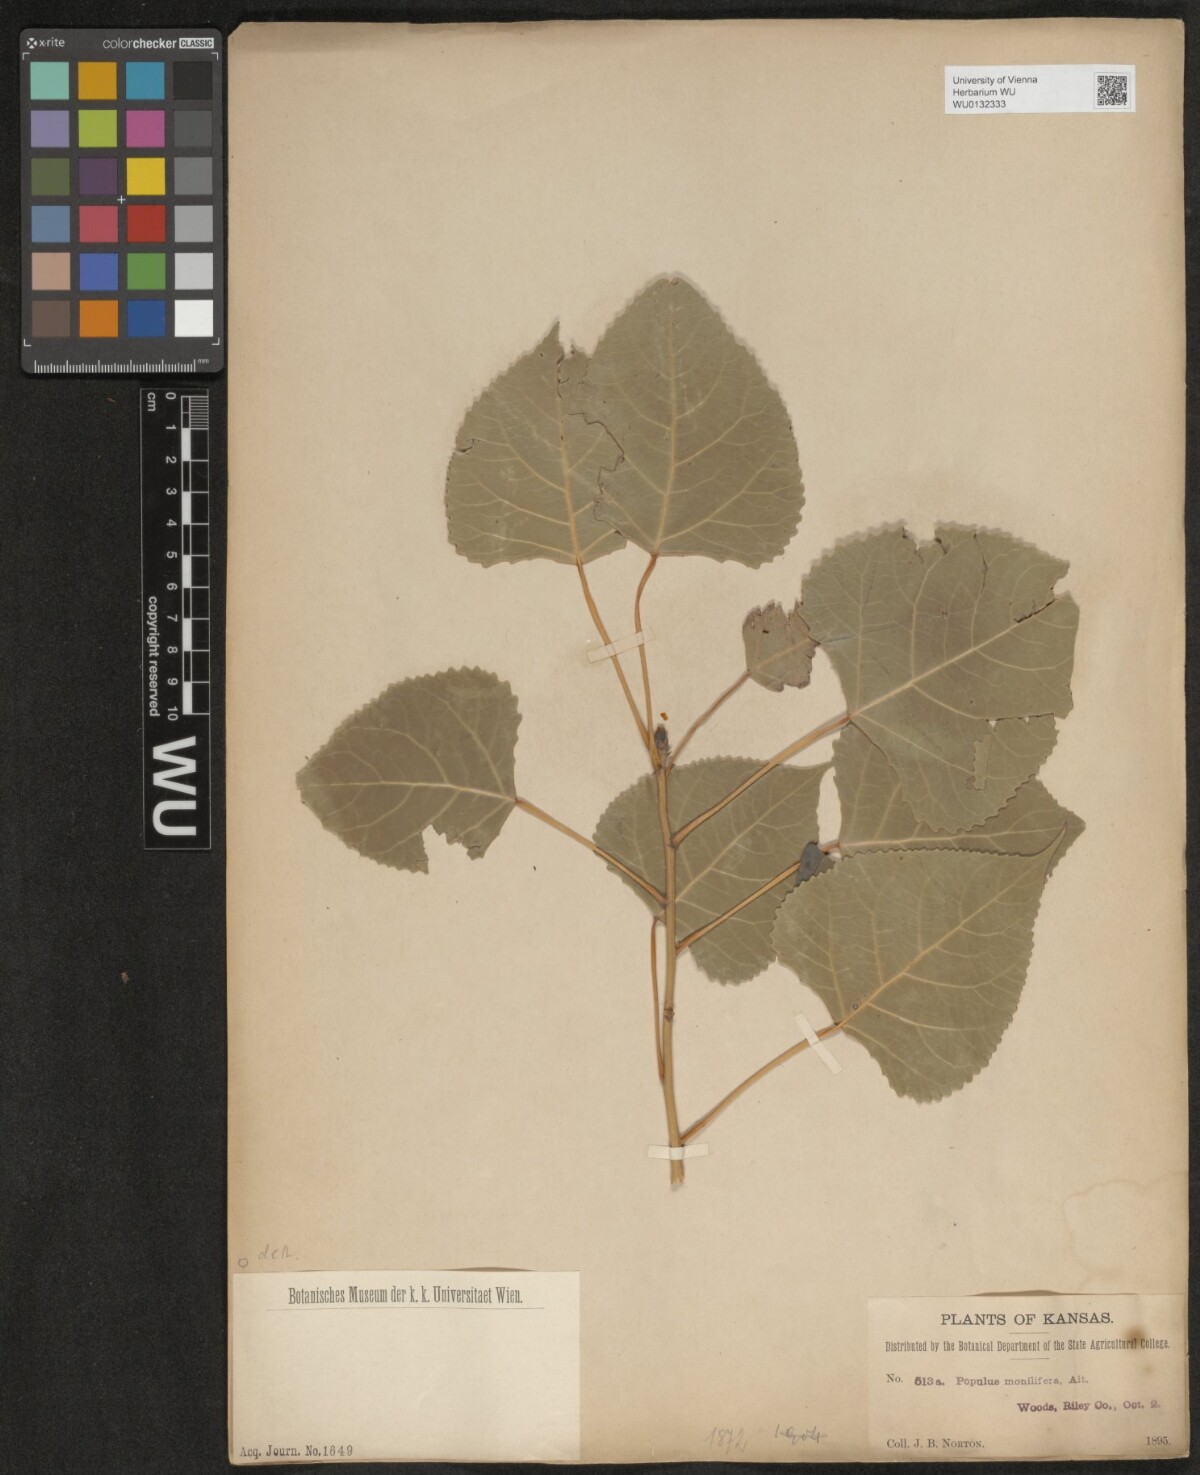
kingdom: Plantae
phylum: Tracheophyta
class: Magnoliopsida
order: Malpighiales
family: Salicaceae
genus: Populus
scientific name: Populus deltoides
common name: Eastern cottonwood
